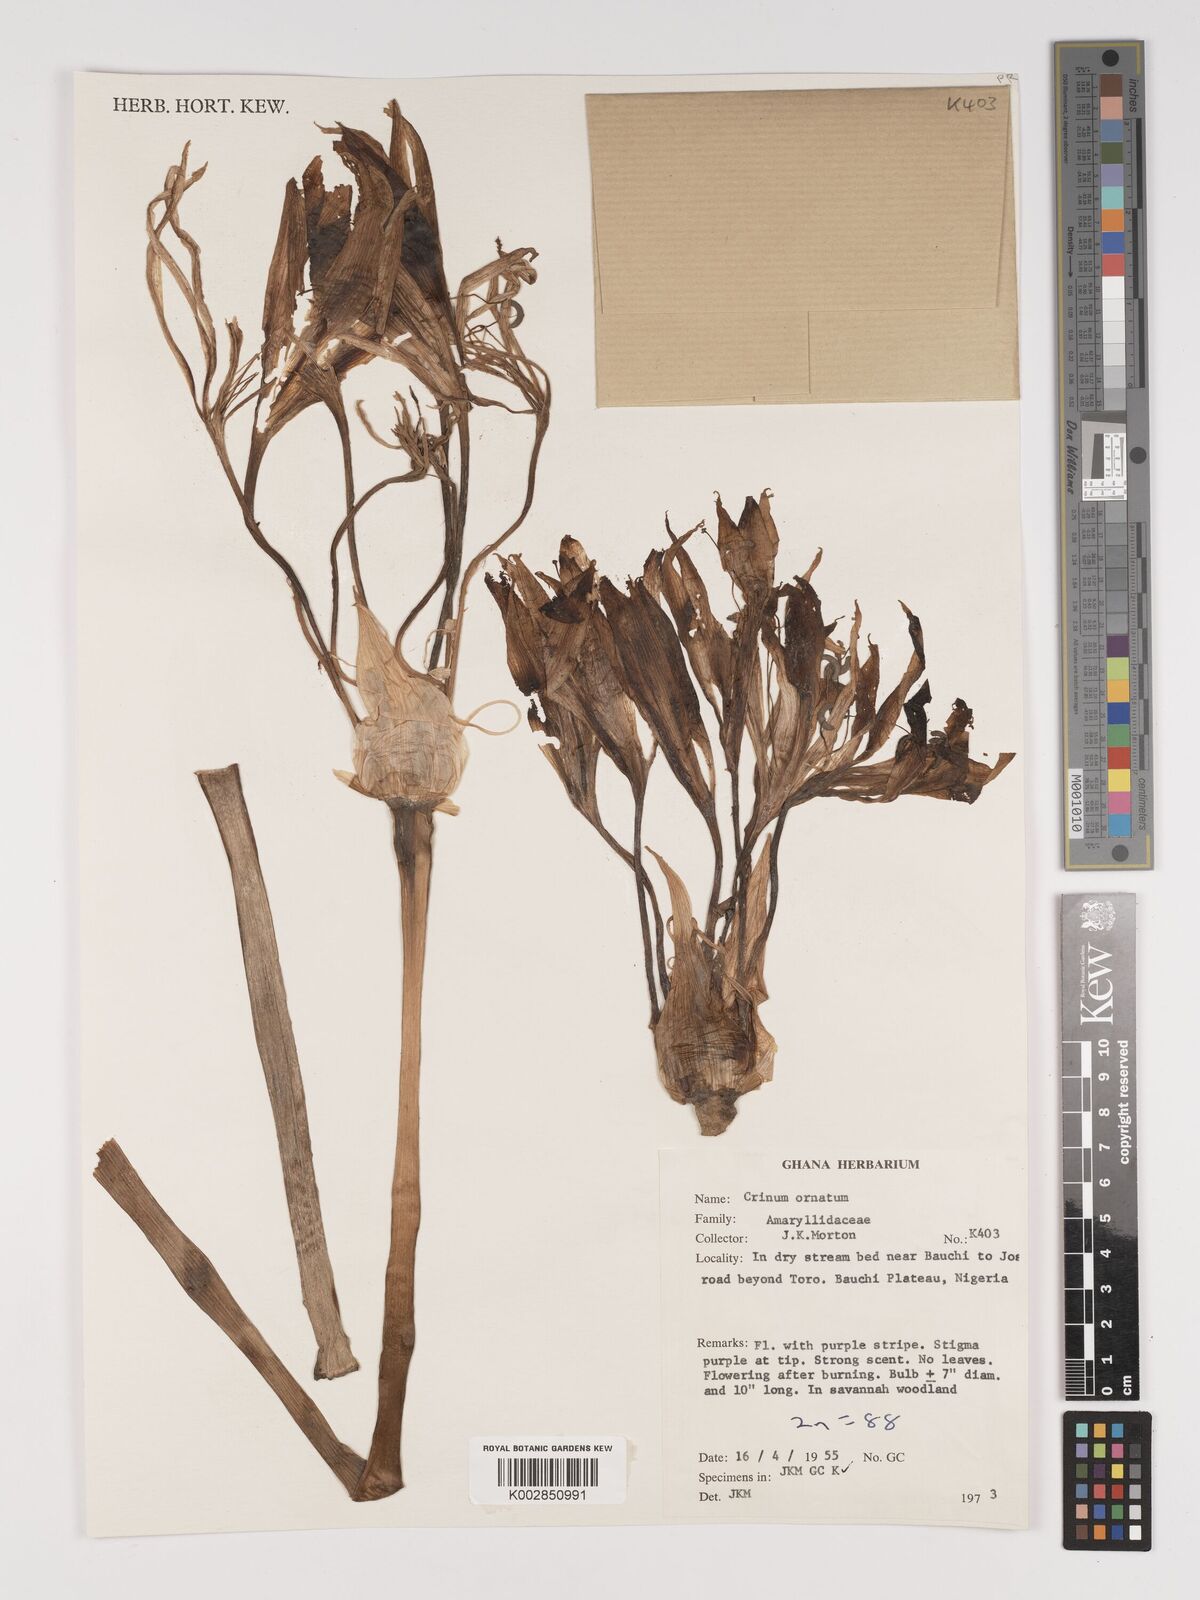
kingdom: Plantae
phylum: Tracheophyta
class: Liliopsida
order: Asparagales
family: Amaryllidaceae
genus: Crinum
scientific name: Crinum zeylanicum
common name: Ceylon swamplily
